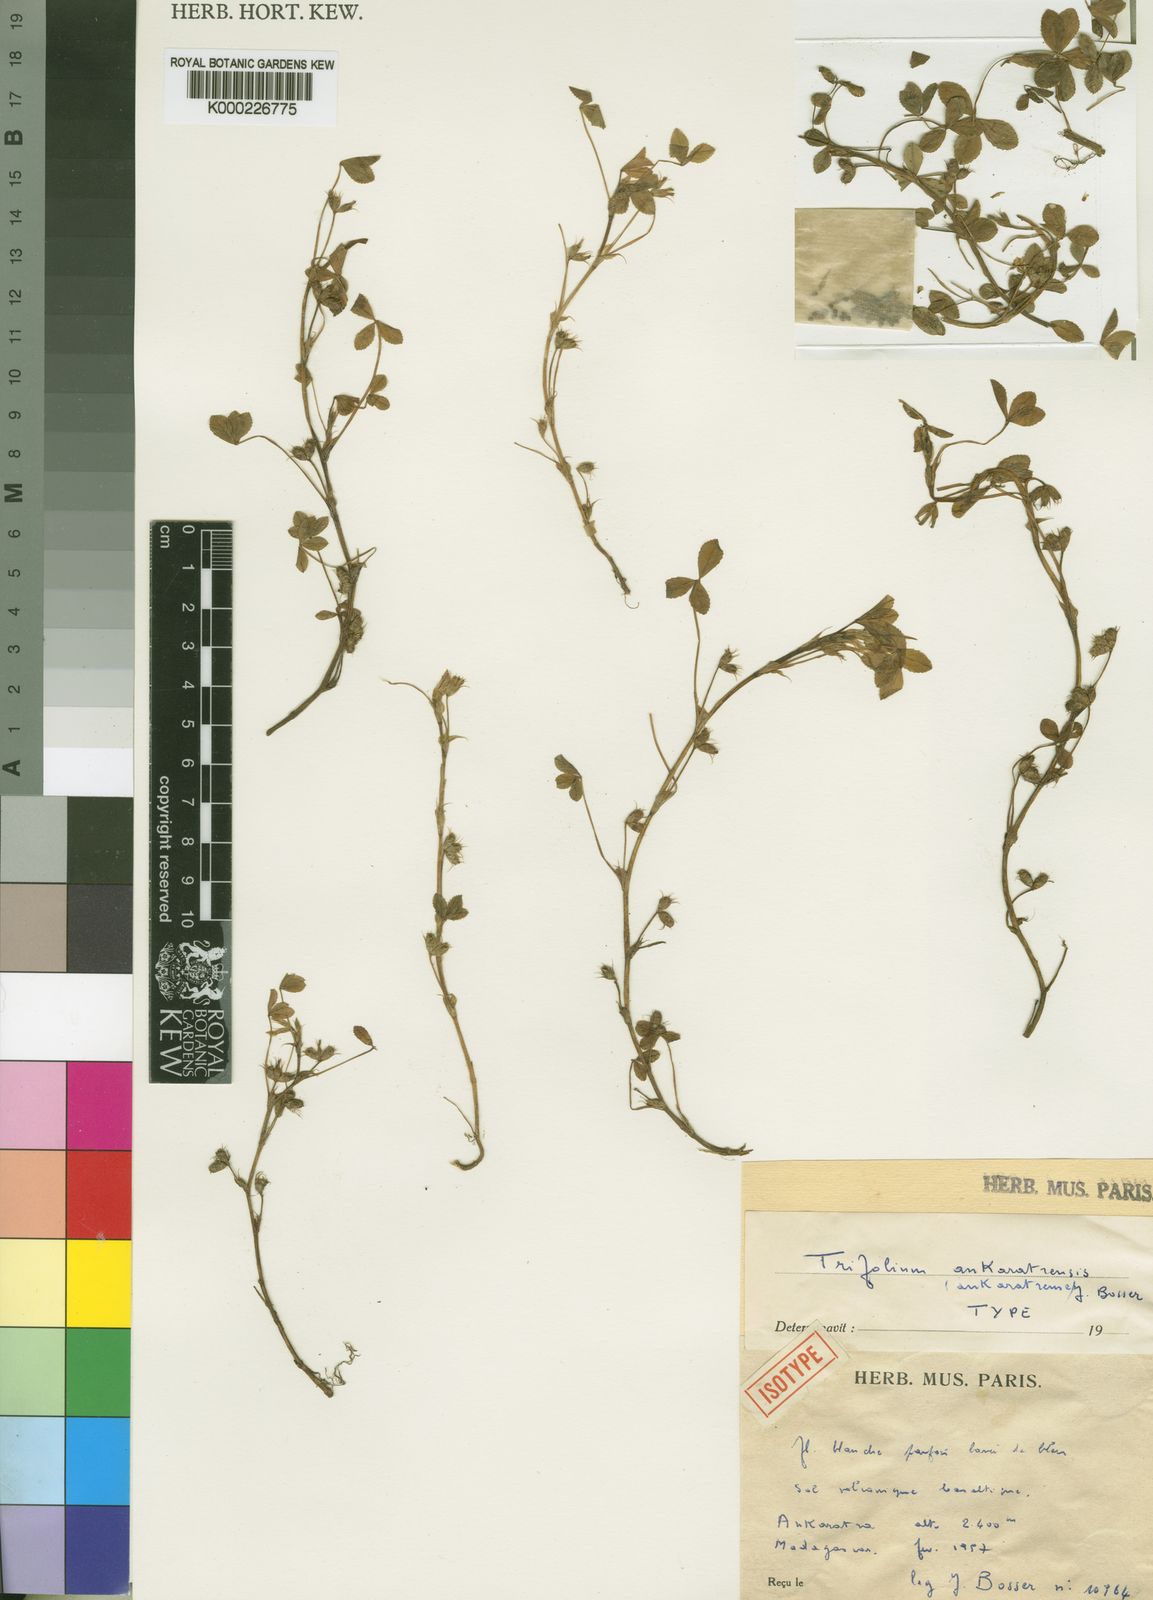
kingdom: Plantae
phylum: Tracheophyta
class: Magnoliopsida
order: Fabales
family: Fabaceae
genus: Trifolium
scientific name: Trifolium ankaratrense
